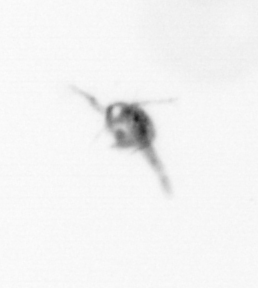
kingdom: Animalia
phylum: Arthropoda
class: Copepoda
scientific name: Copepoda
